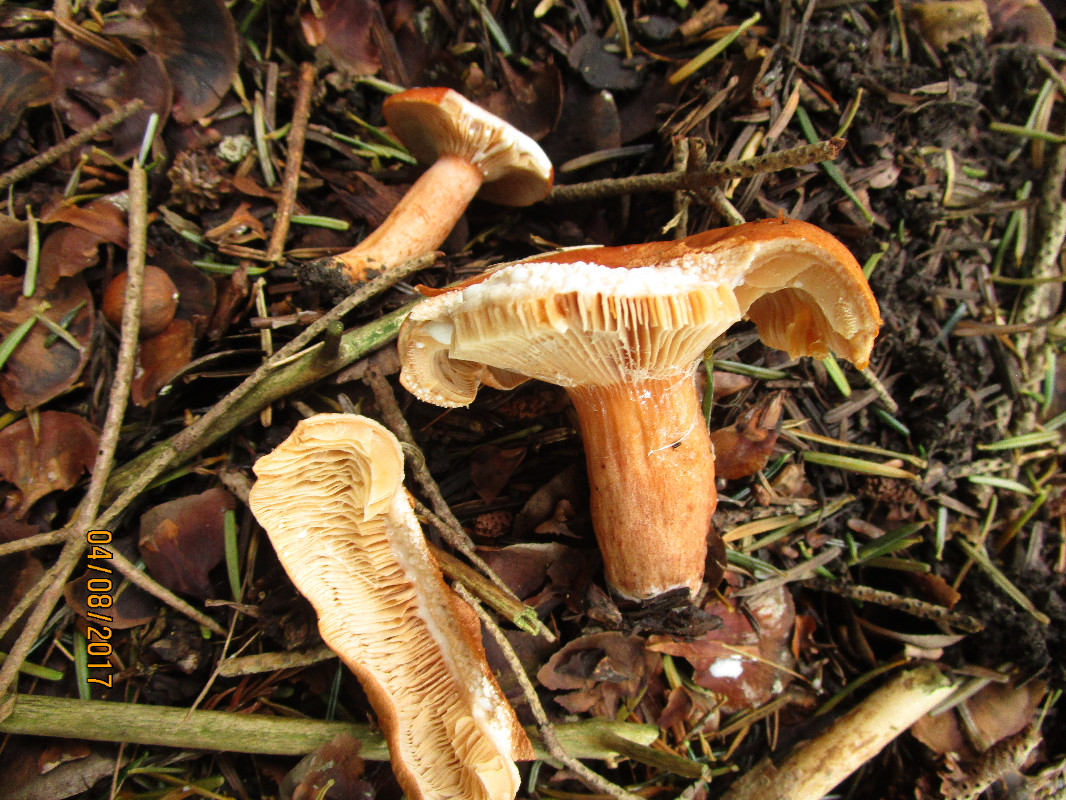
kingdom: Fungi
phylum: Basidiomycota
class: Agaricomycetes
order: Russulales
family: Russulaceae
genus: Lactifluus
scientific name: Lactifluus volemus
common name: spiselig mælkehat
